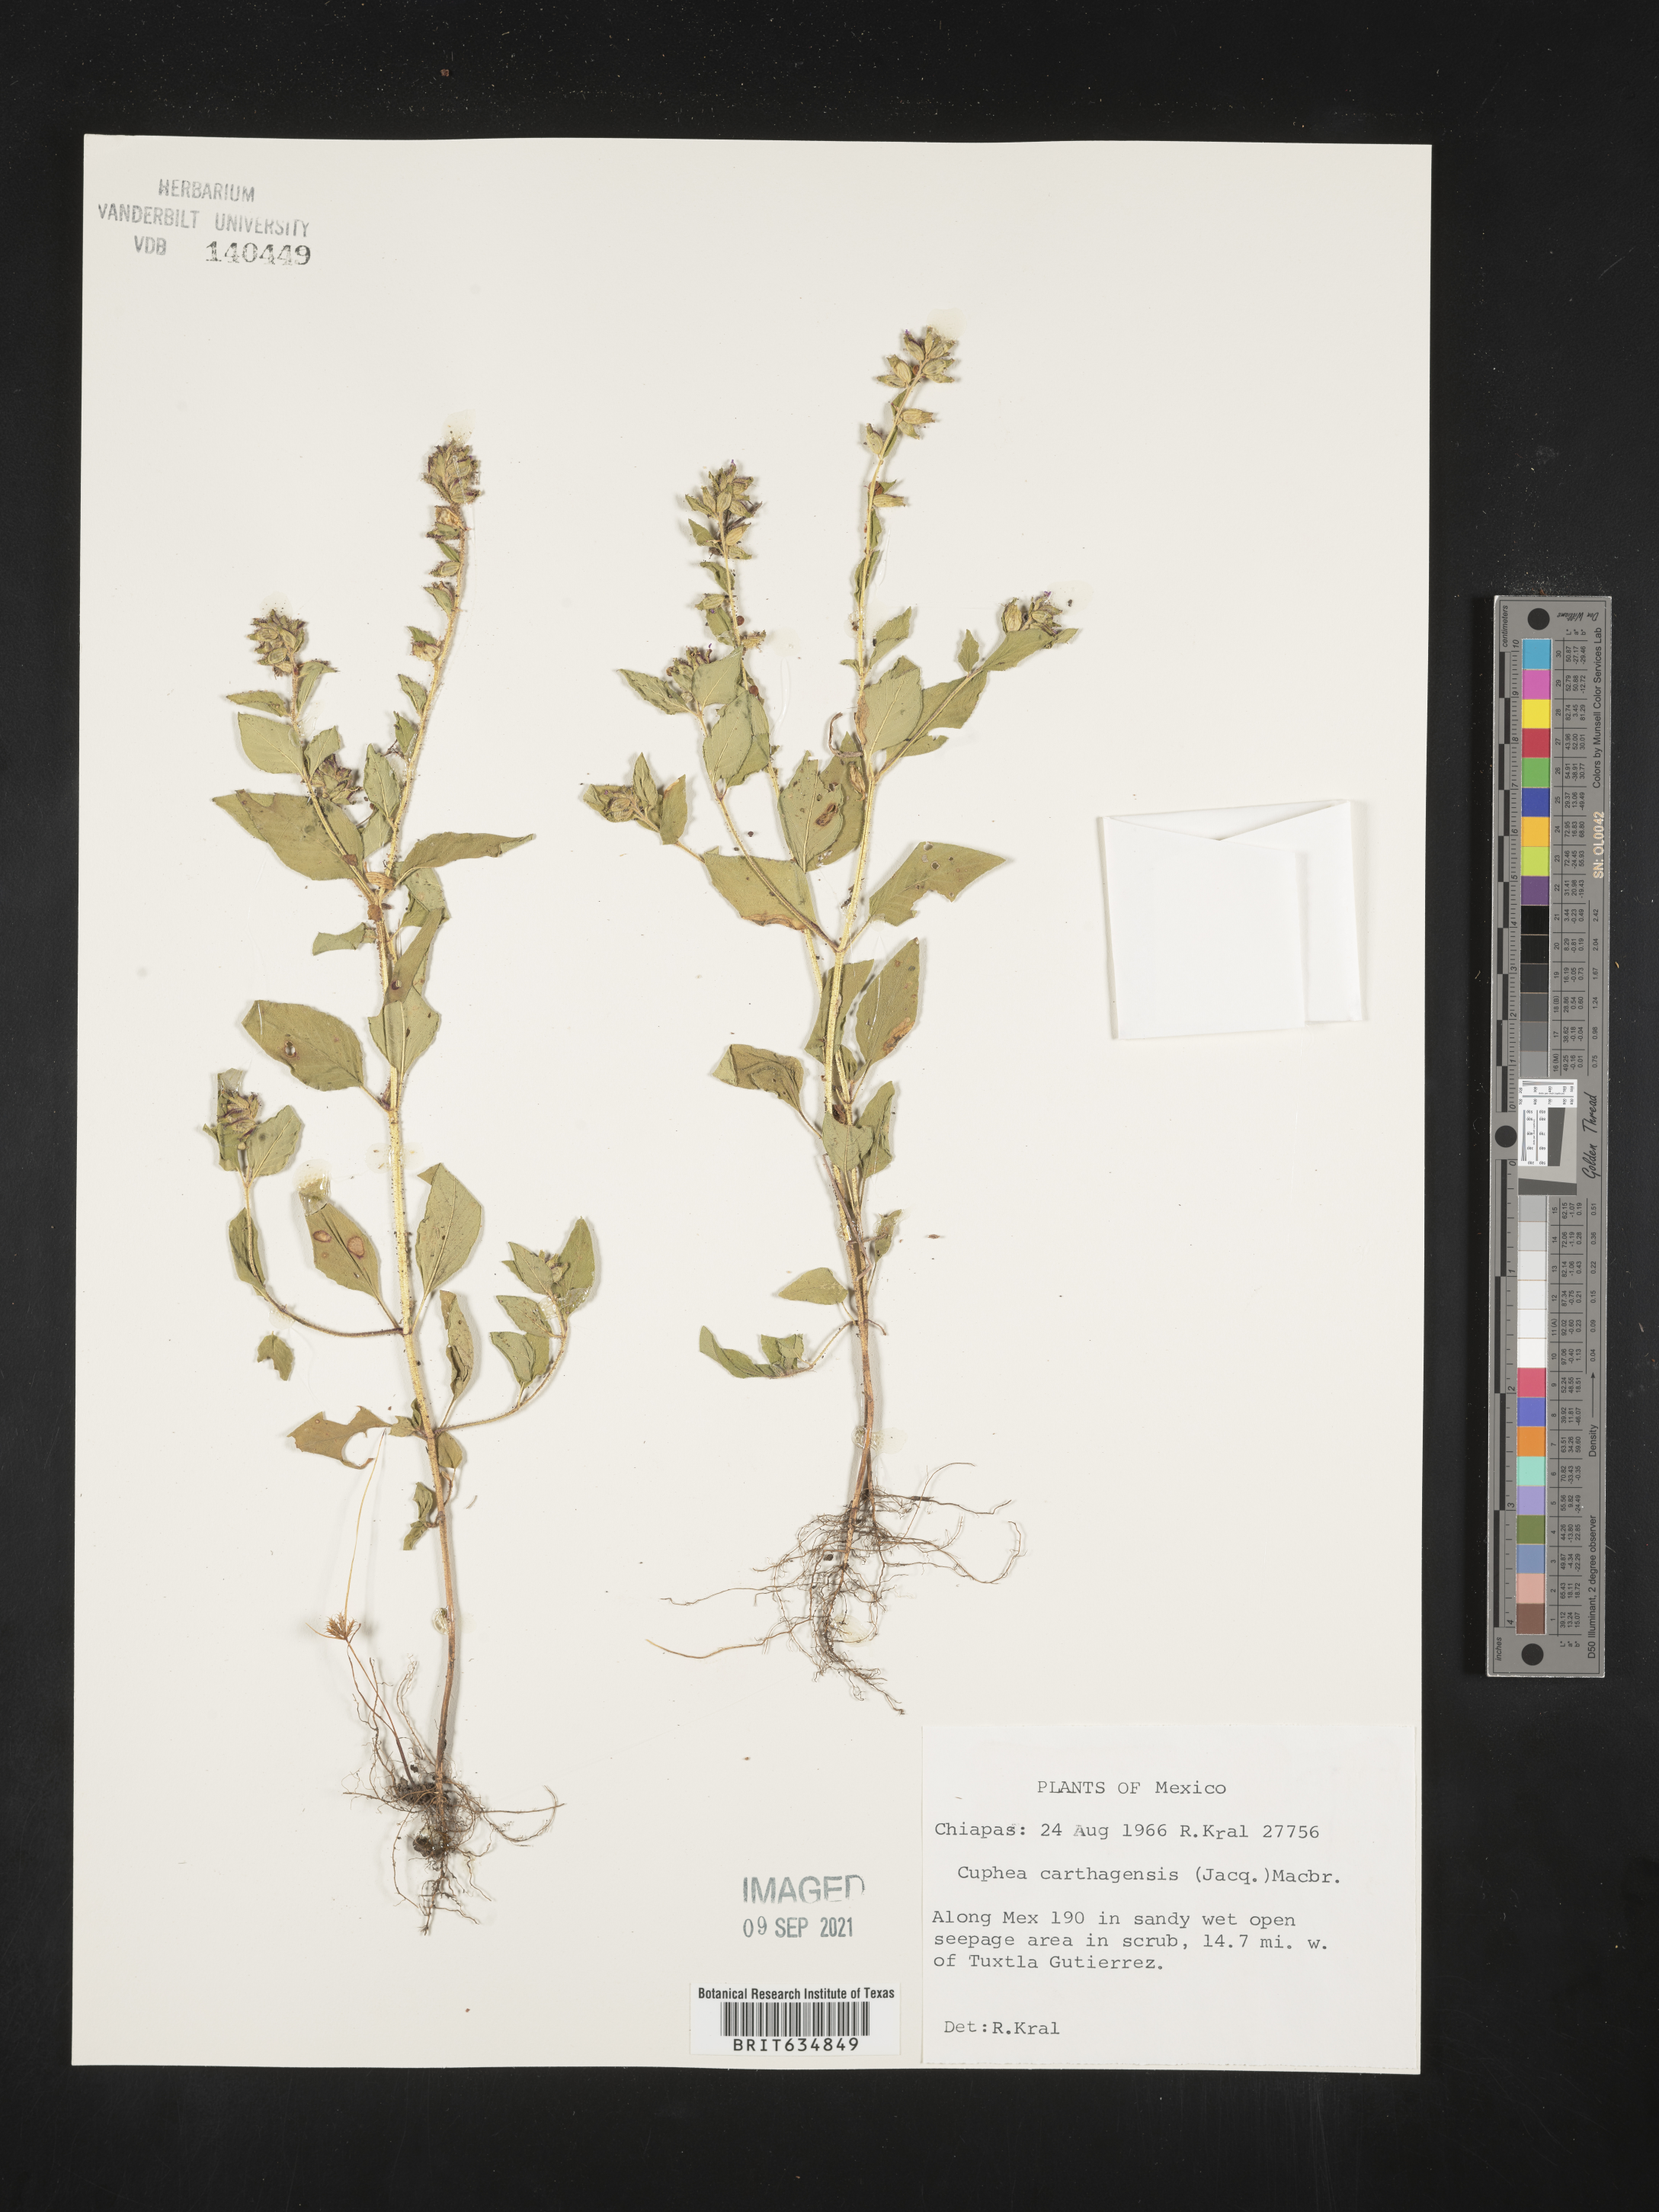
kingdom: Plantae
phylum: Tracheophyta
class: Magnoliopsida
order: Myrtales
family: Lythraceae
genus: Cuphea
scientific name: Cuphea
